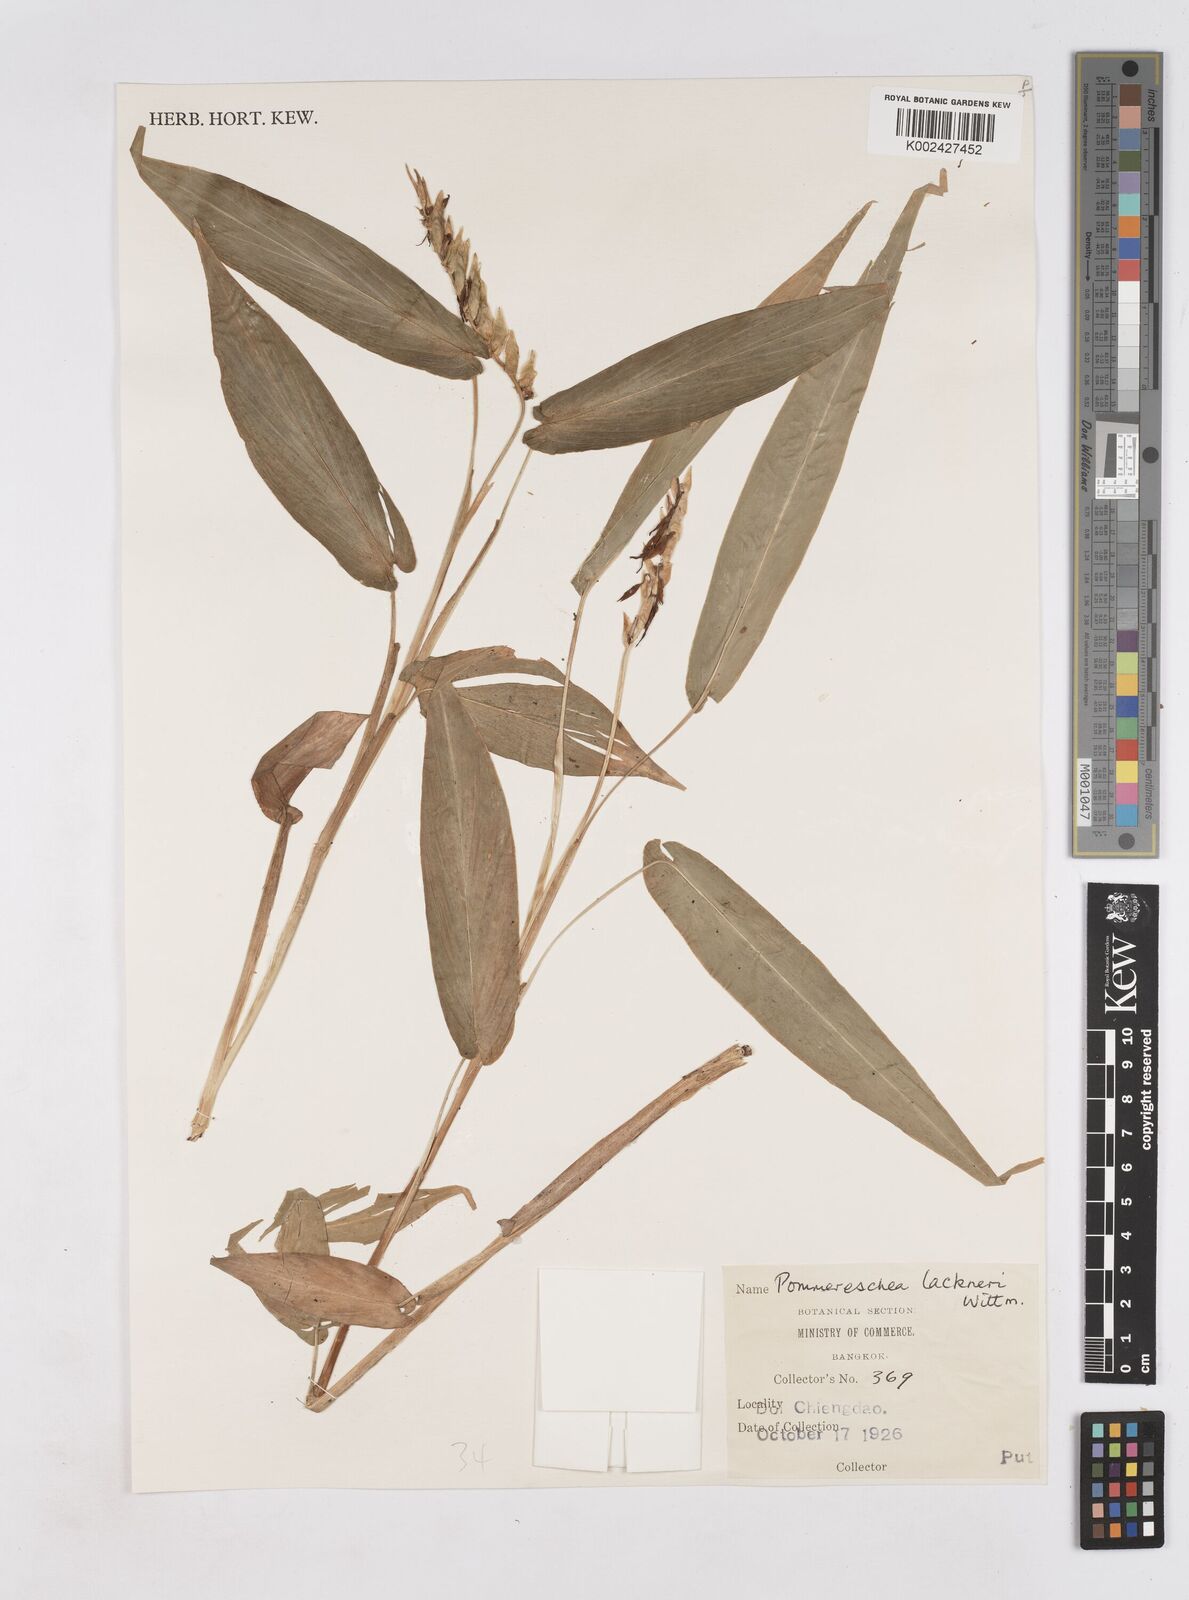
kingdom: Plantae
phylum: Tracheophyta
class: Liliopsida
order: Zingiberales
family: Zingiberaceae
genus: Pommereschea
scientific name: Pommereschea lackneri
